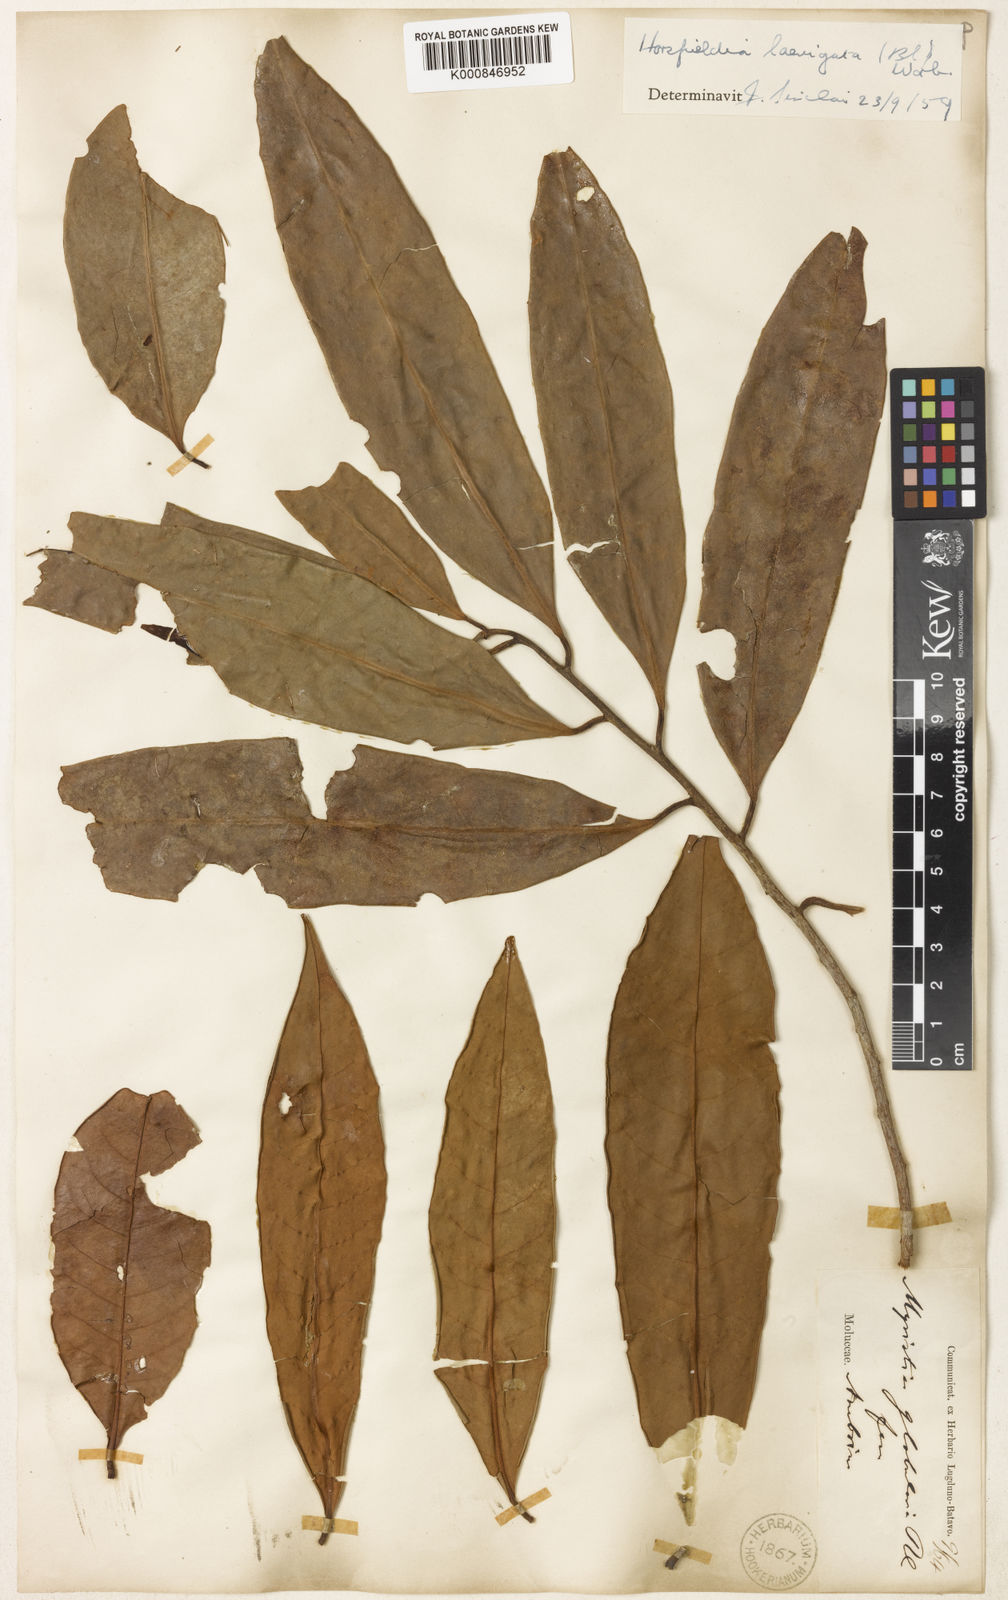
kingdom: Plantae
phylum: Tracheophyta
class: Magnoliopsida
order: Magnoliales
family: Myristicaceae
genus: Horsfieldia
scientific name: Horsfieldia laevigata
